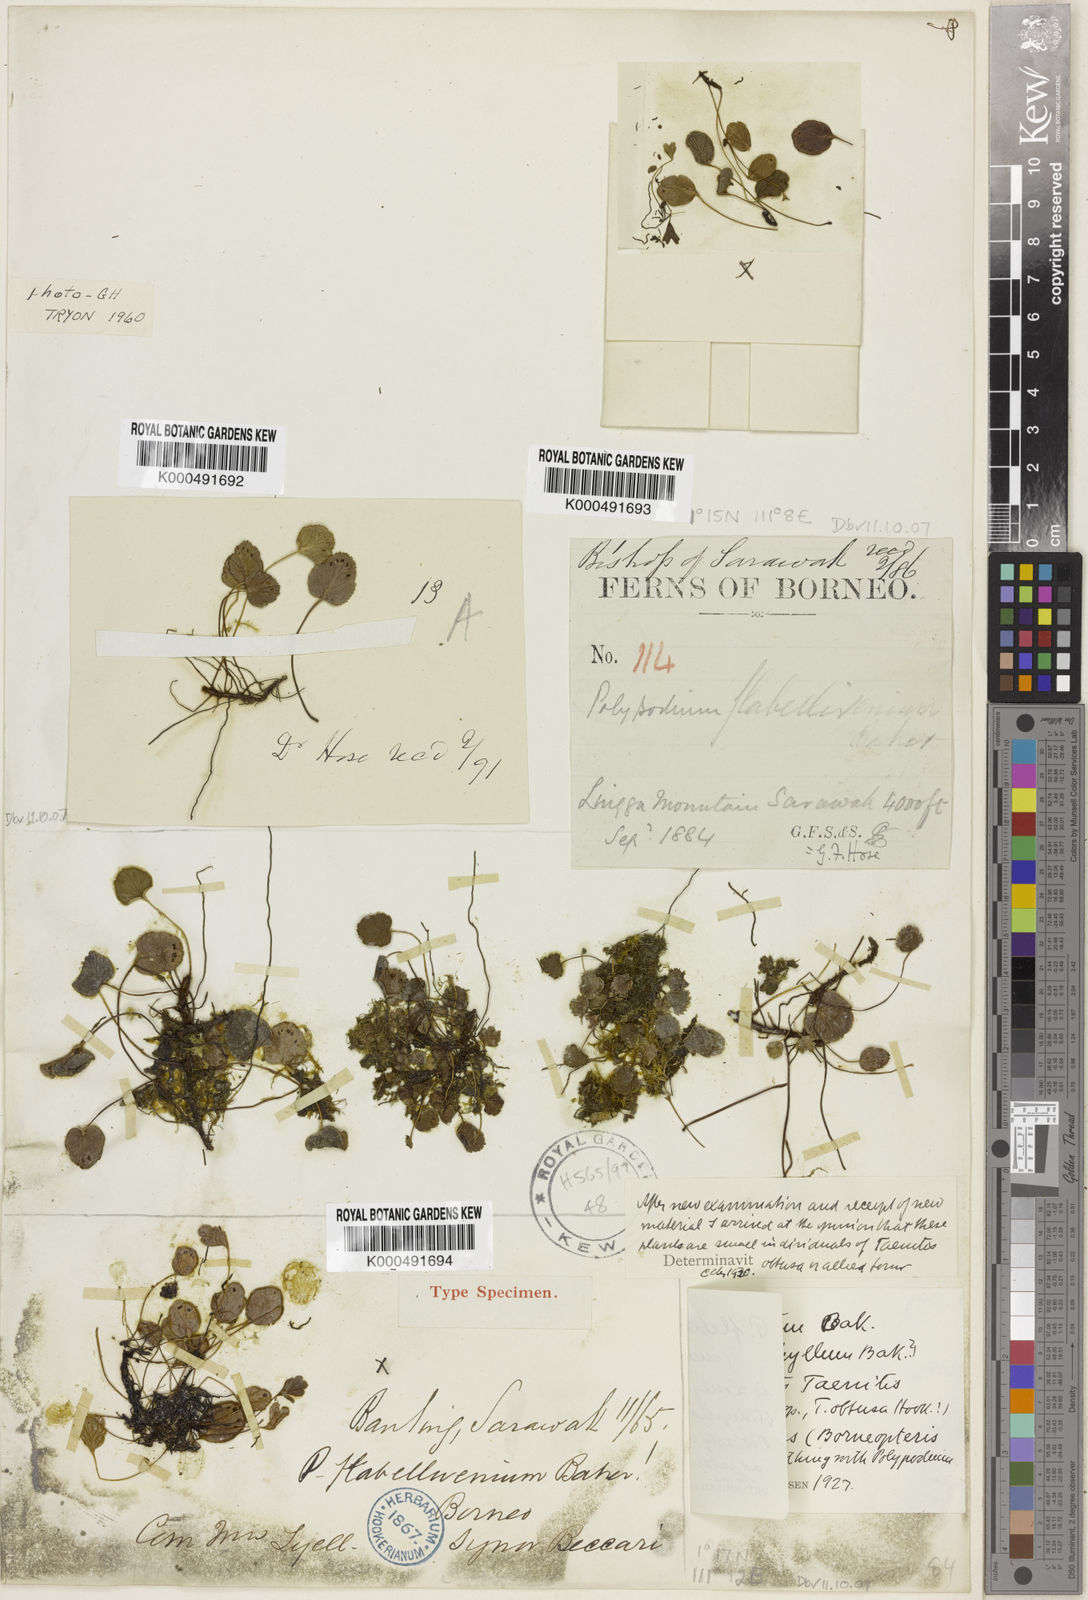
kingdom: Plantae
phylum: Tracheophyta
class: Polypodiopsida
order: Polypodiales
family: Pteridaceae
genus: Taenitis
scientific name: Taenitis flabellivenia
